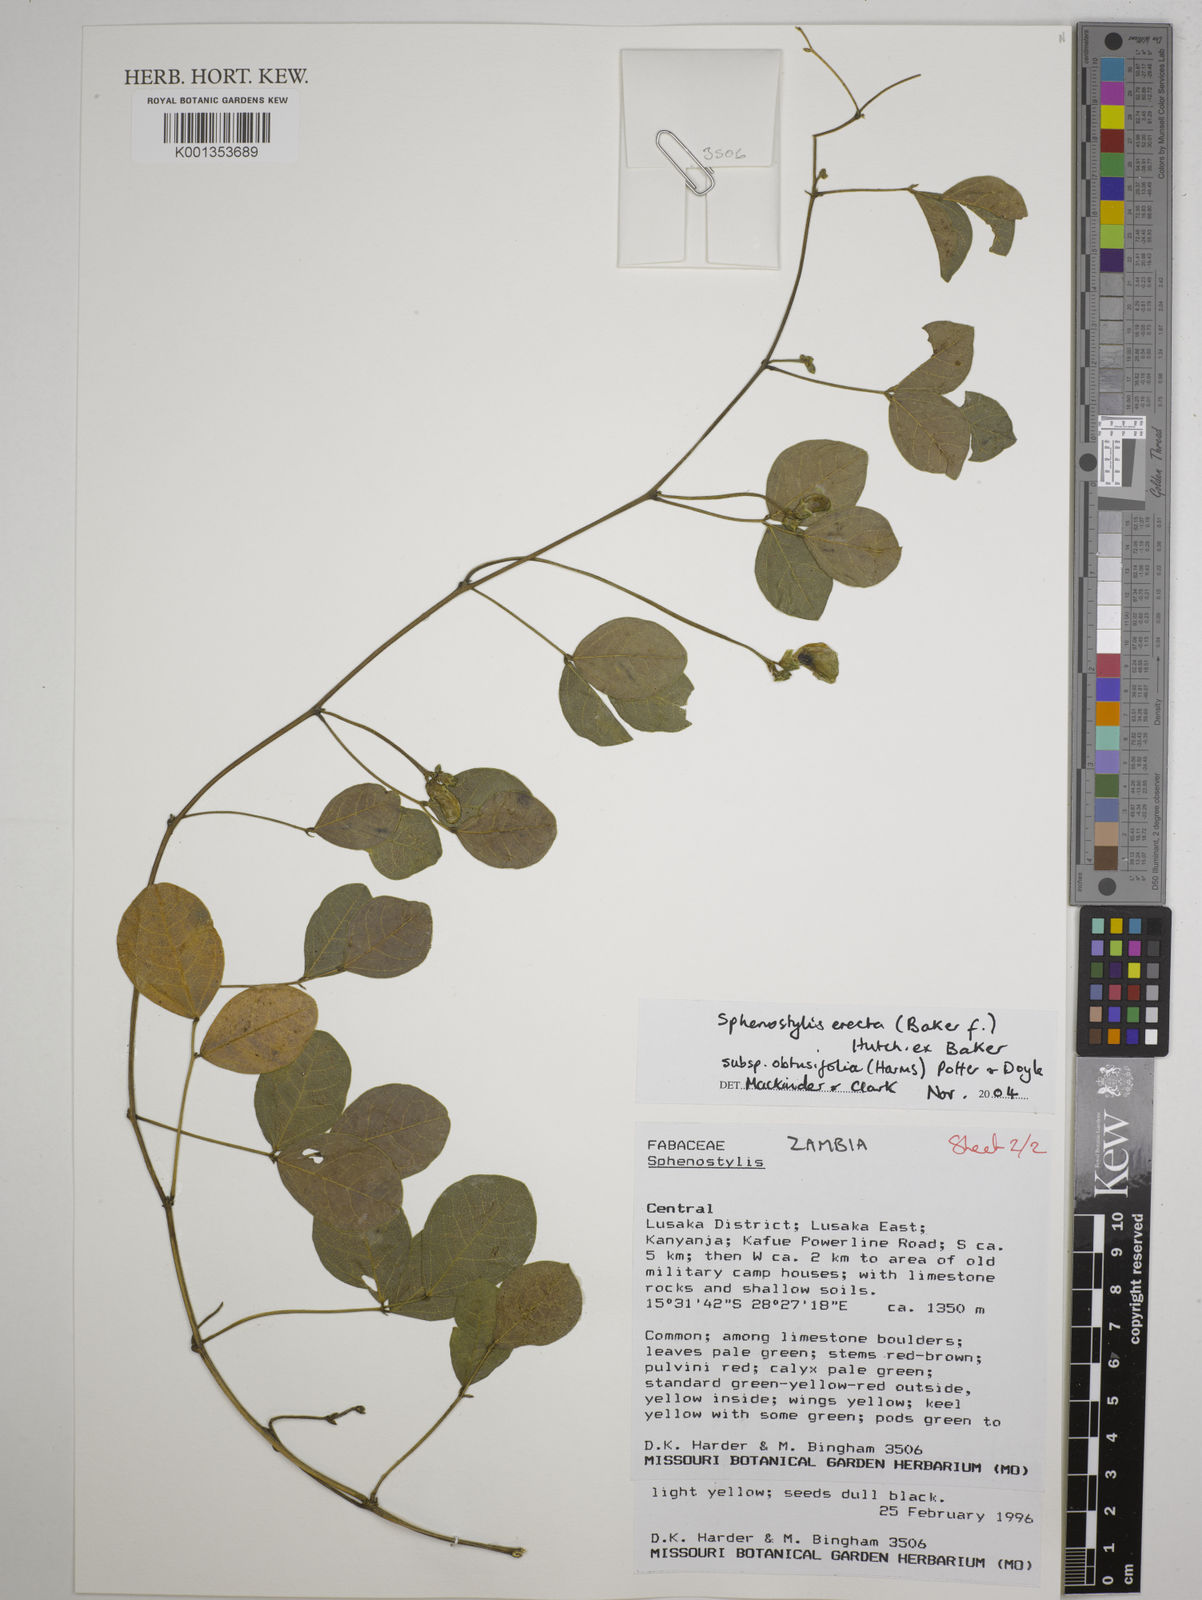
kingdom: Plantae
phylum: Tracheophyta
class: Magnoliopsida
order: Fabales
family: Fabaceae
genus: Sphenostylis
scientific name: Sphenostylis erecta
